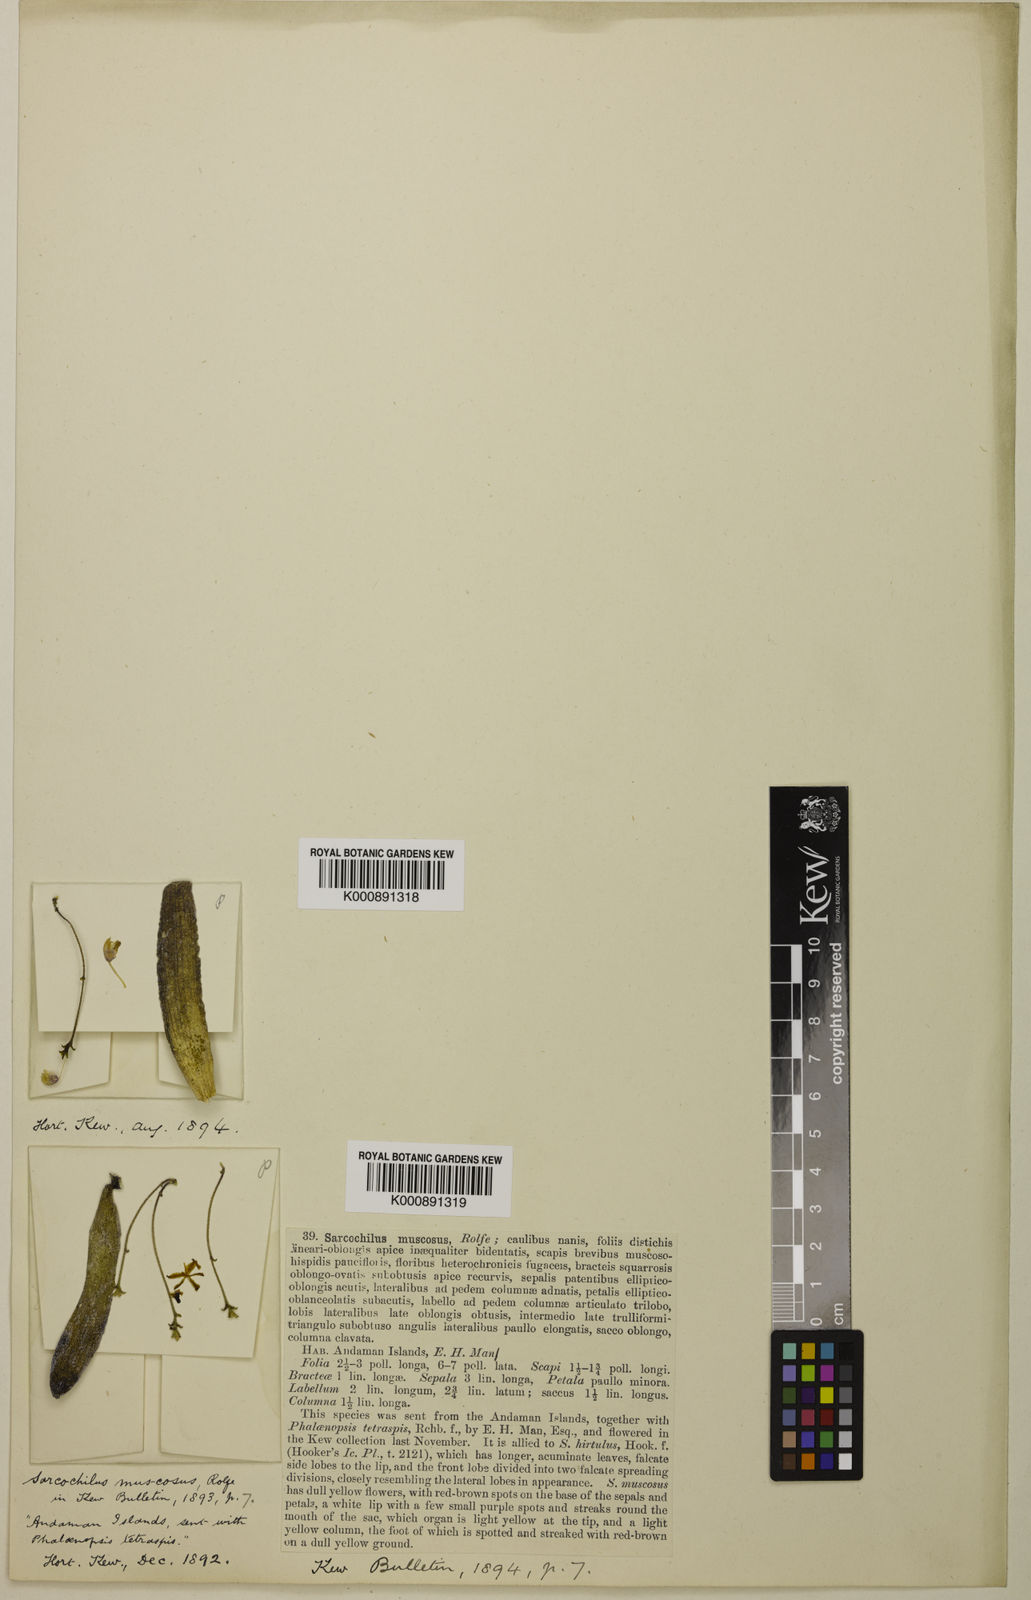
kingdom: Plantae
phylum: Tracheophyta
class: Liliopsida
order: Asparagales
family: Orchidaceae
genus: Thrixspermum
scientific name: Thrixspermum
